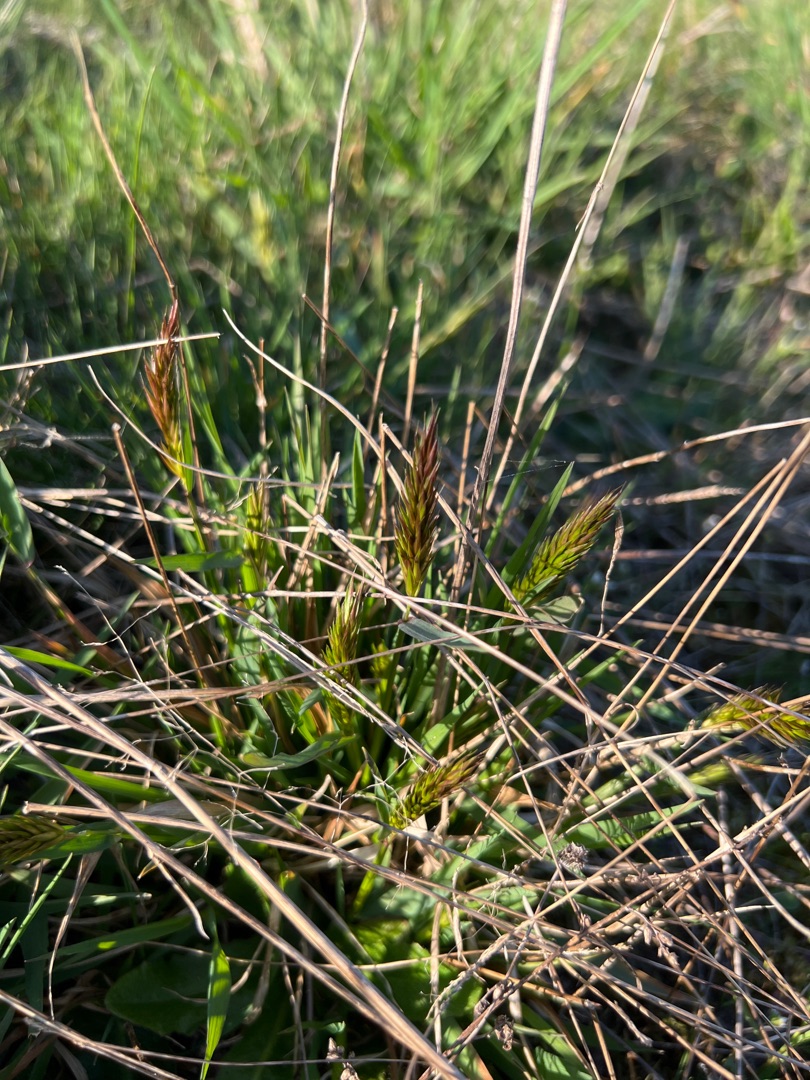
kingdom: Plantae
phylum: Tracheophyta
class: Liliopsida
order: Poales
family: Poaceae
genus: Anthoxanthum
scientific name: Anthoxanthum odoratum
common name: Vellugtende gulaks
